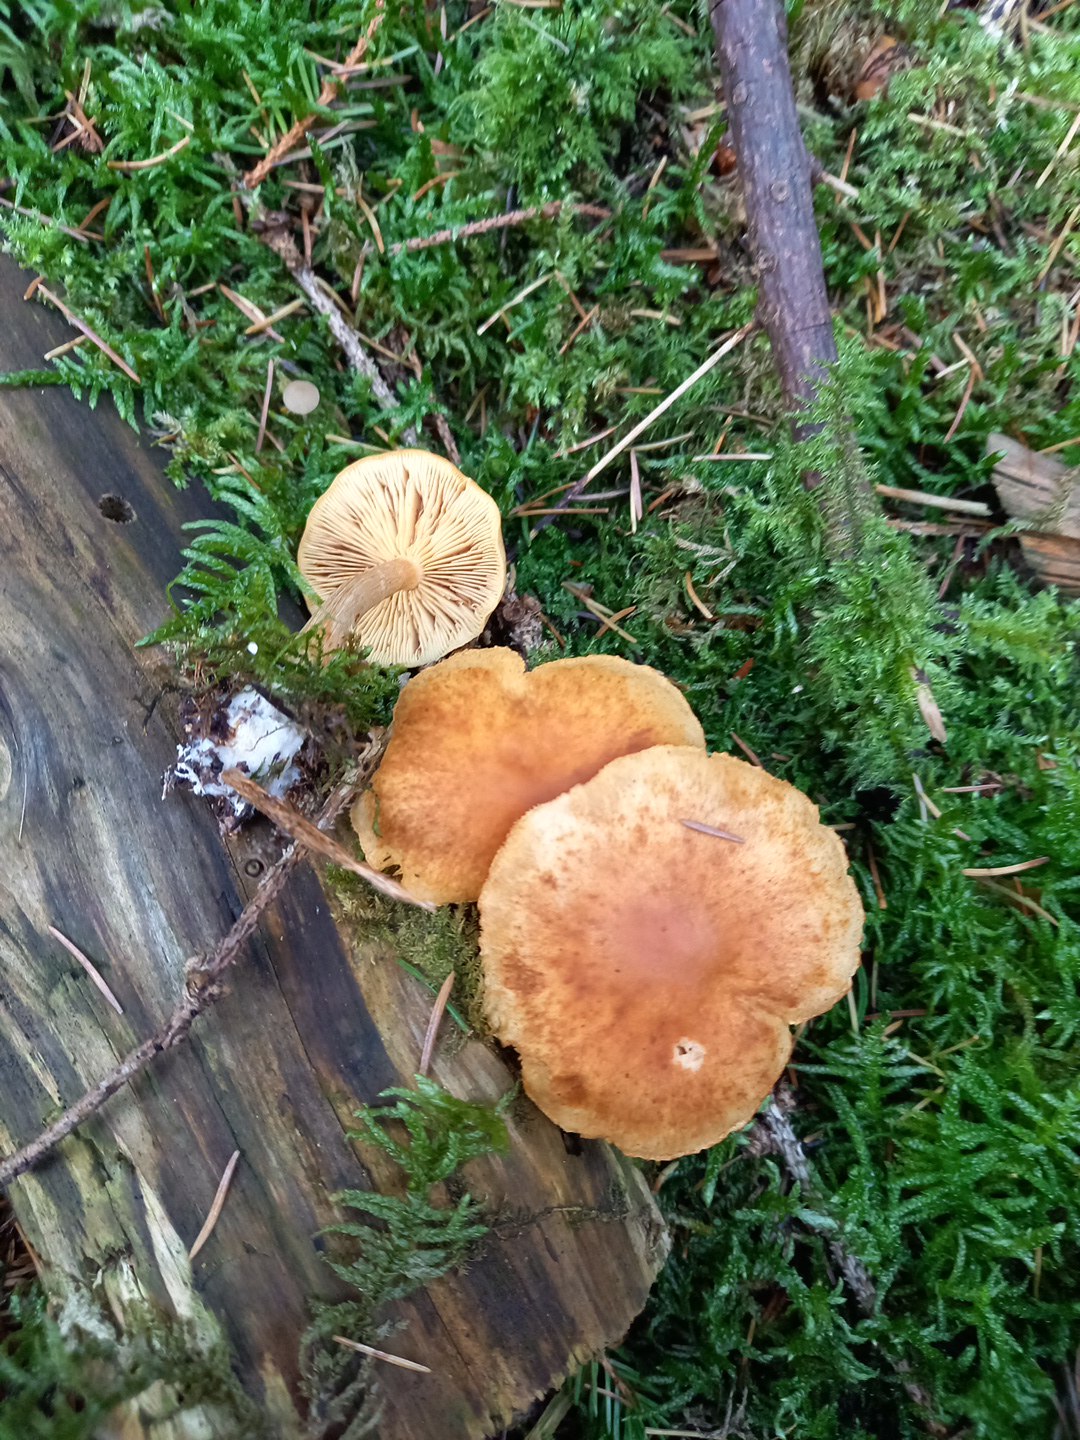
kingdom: Fungi
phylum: Basidiomycota
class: Agaricomycetes
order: Agaricales
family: Hymenogastraceae
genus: Gymnopilus
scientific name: Gymnopilus penetrans
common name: plettet flammehat
